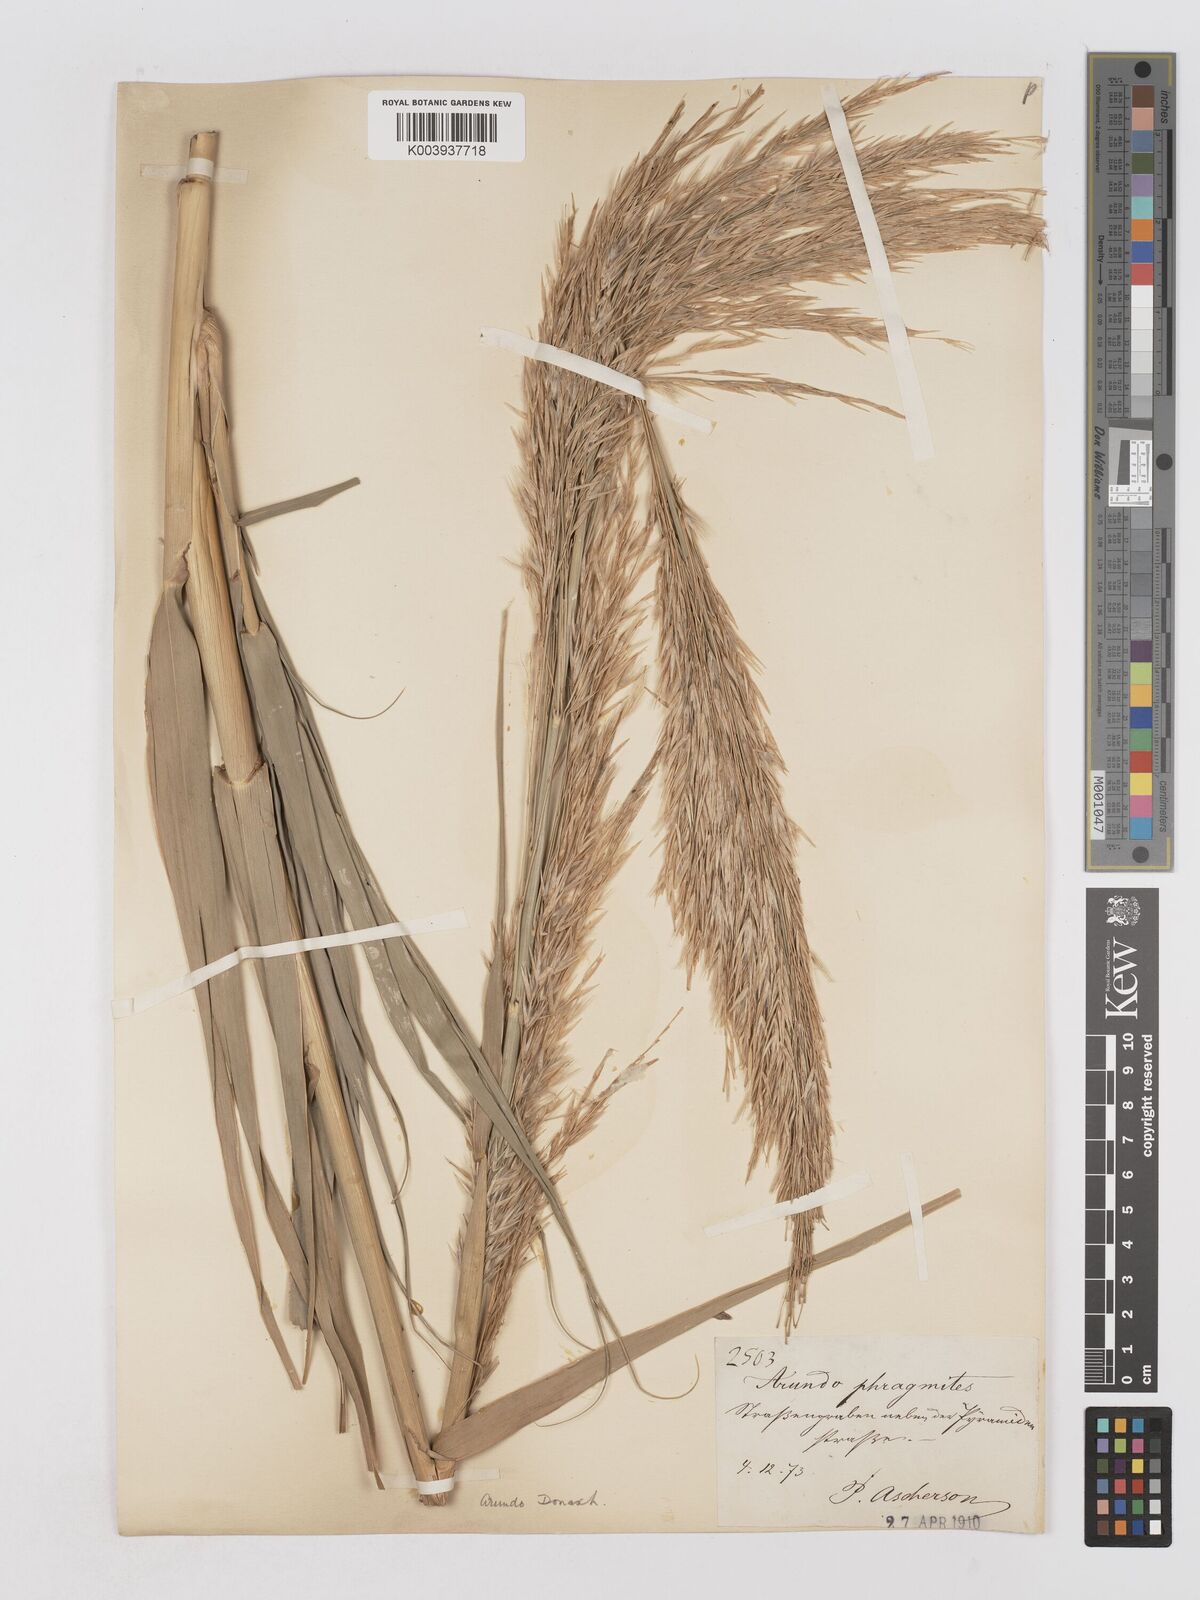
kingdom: Plantae
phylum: Tracheophyta
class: Liliopsida
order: Poales
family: Poaceae
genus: Arundo
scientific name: Arundo donax
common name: Giant reed
